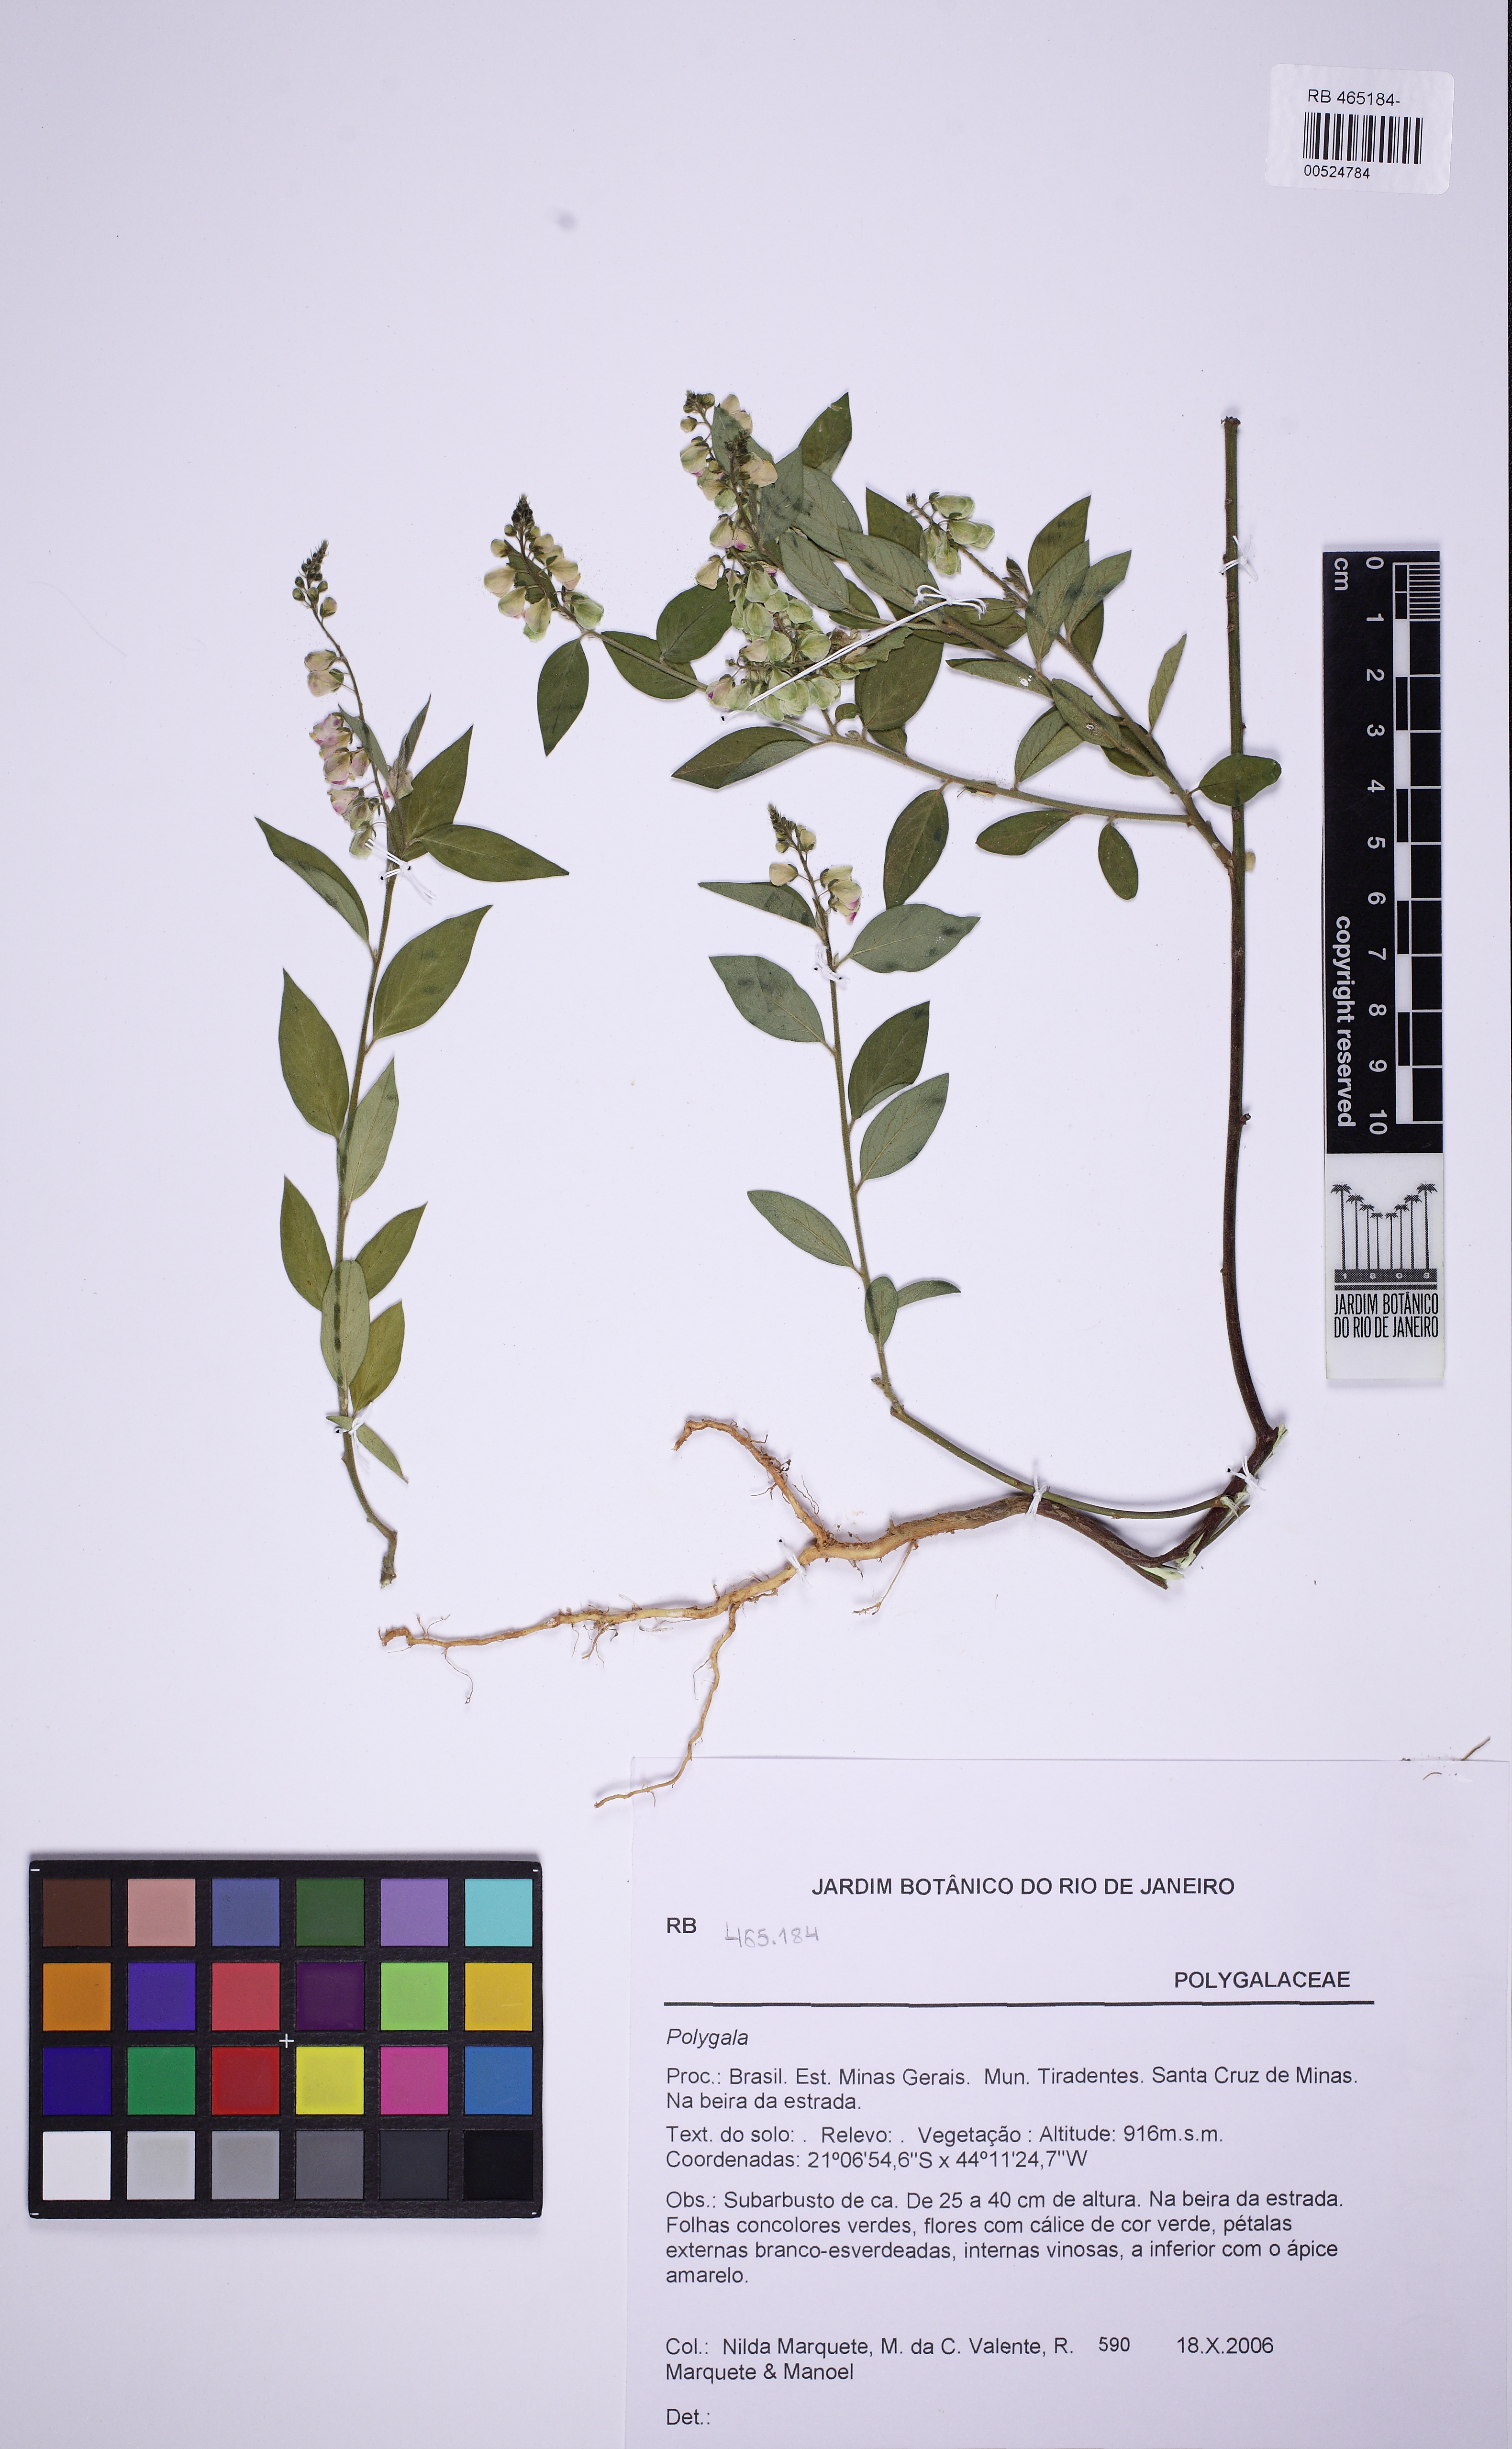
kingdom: Plantae
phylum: Tracheophyta
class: Magnoliopsida
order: Fabales
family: Polygalaceae
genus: Asemeia
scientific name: Asemeia
